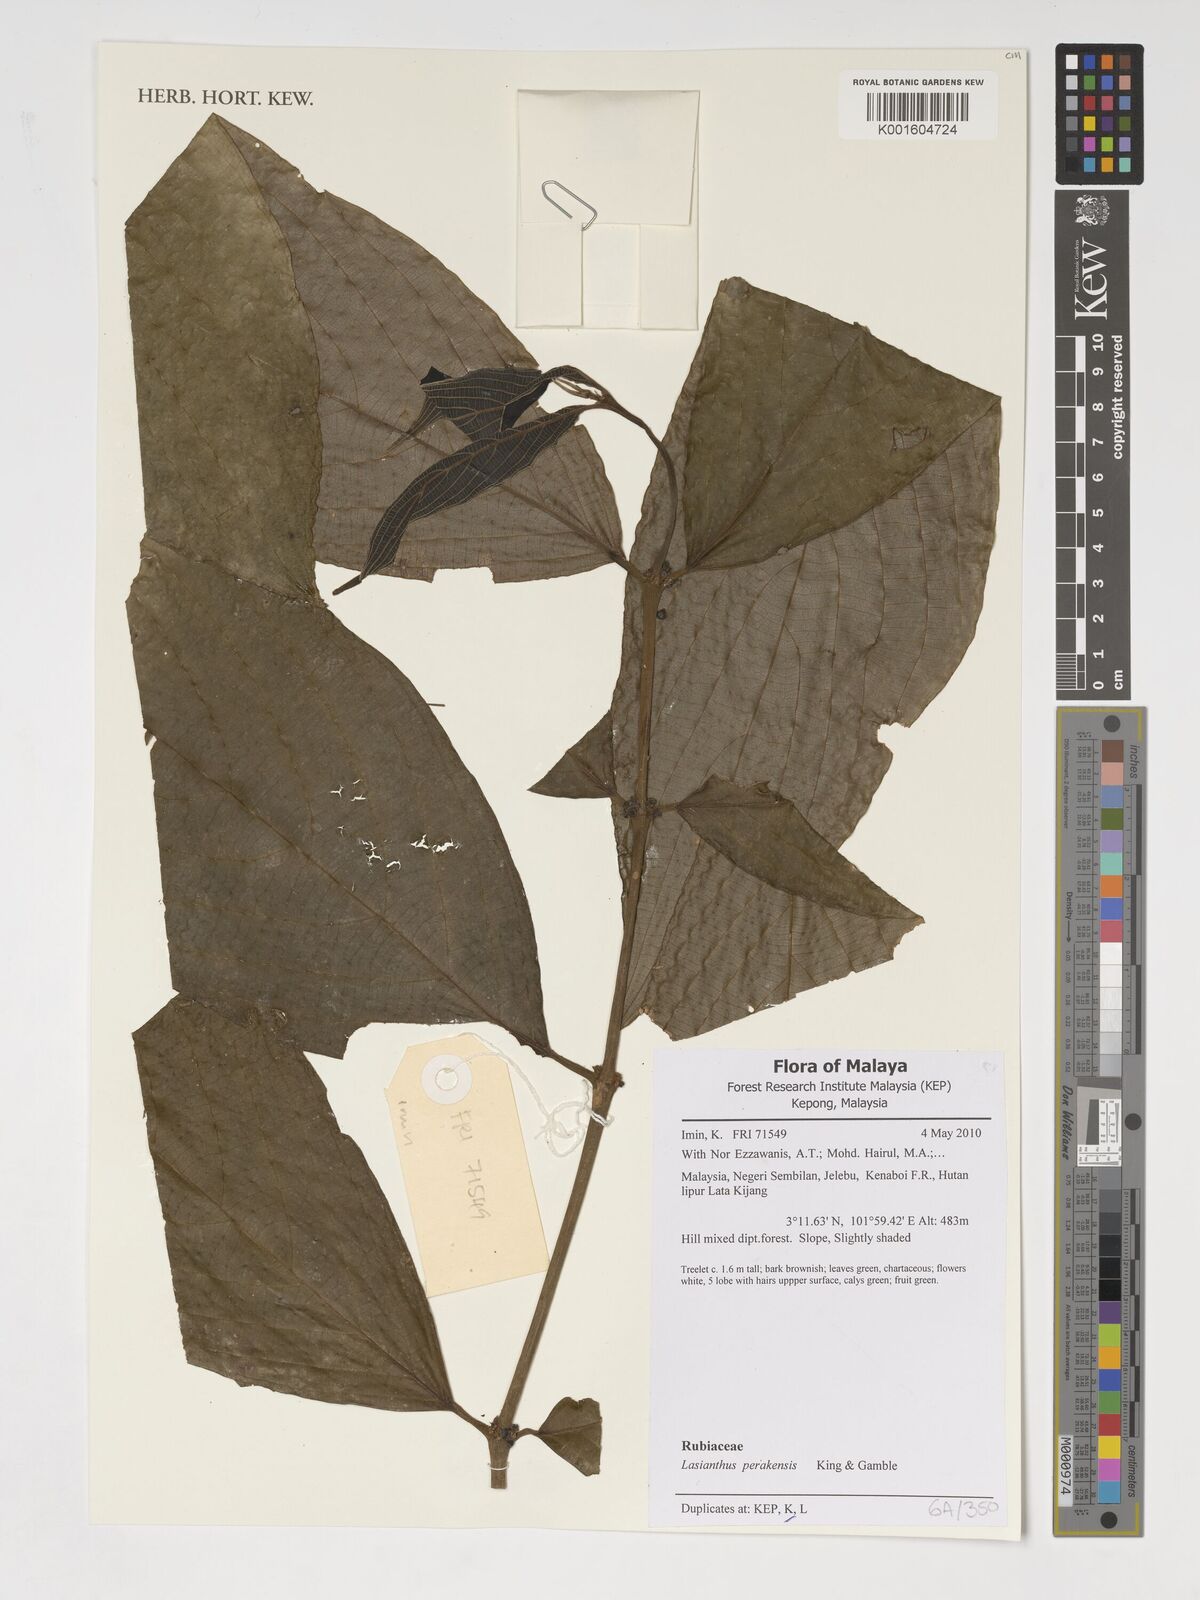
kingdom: Plantae
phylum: Tracheophyta
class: Magnoliopsida
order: Gentianales
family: Rubiaceae
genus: Lasianthus
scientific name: Lasianthus perakensis
